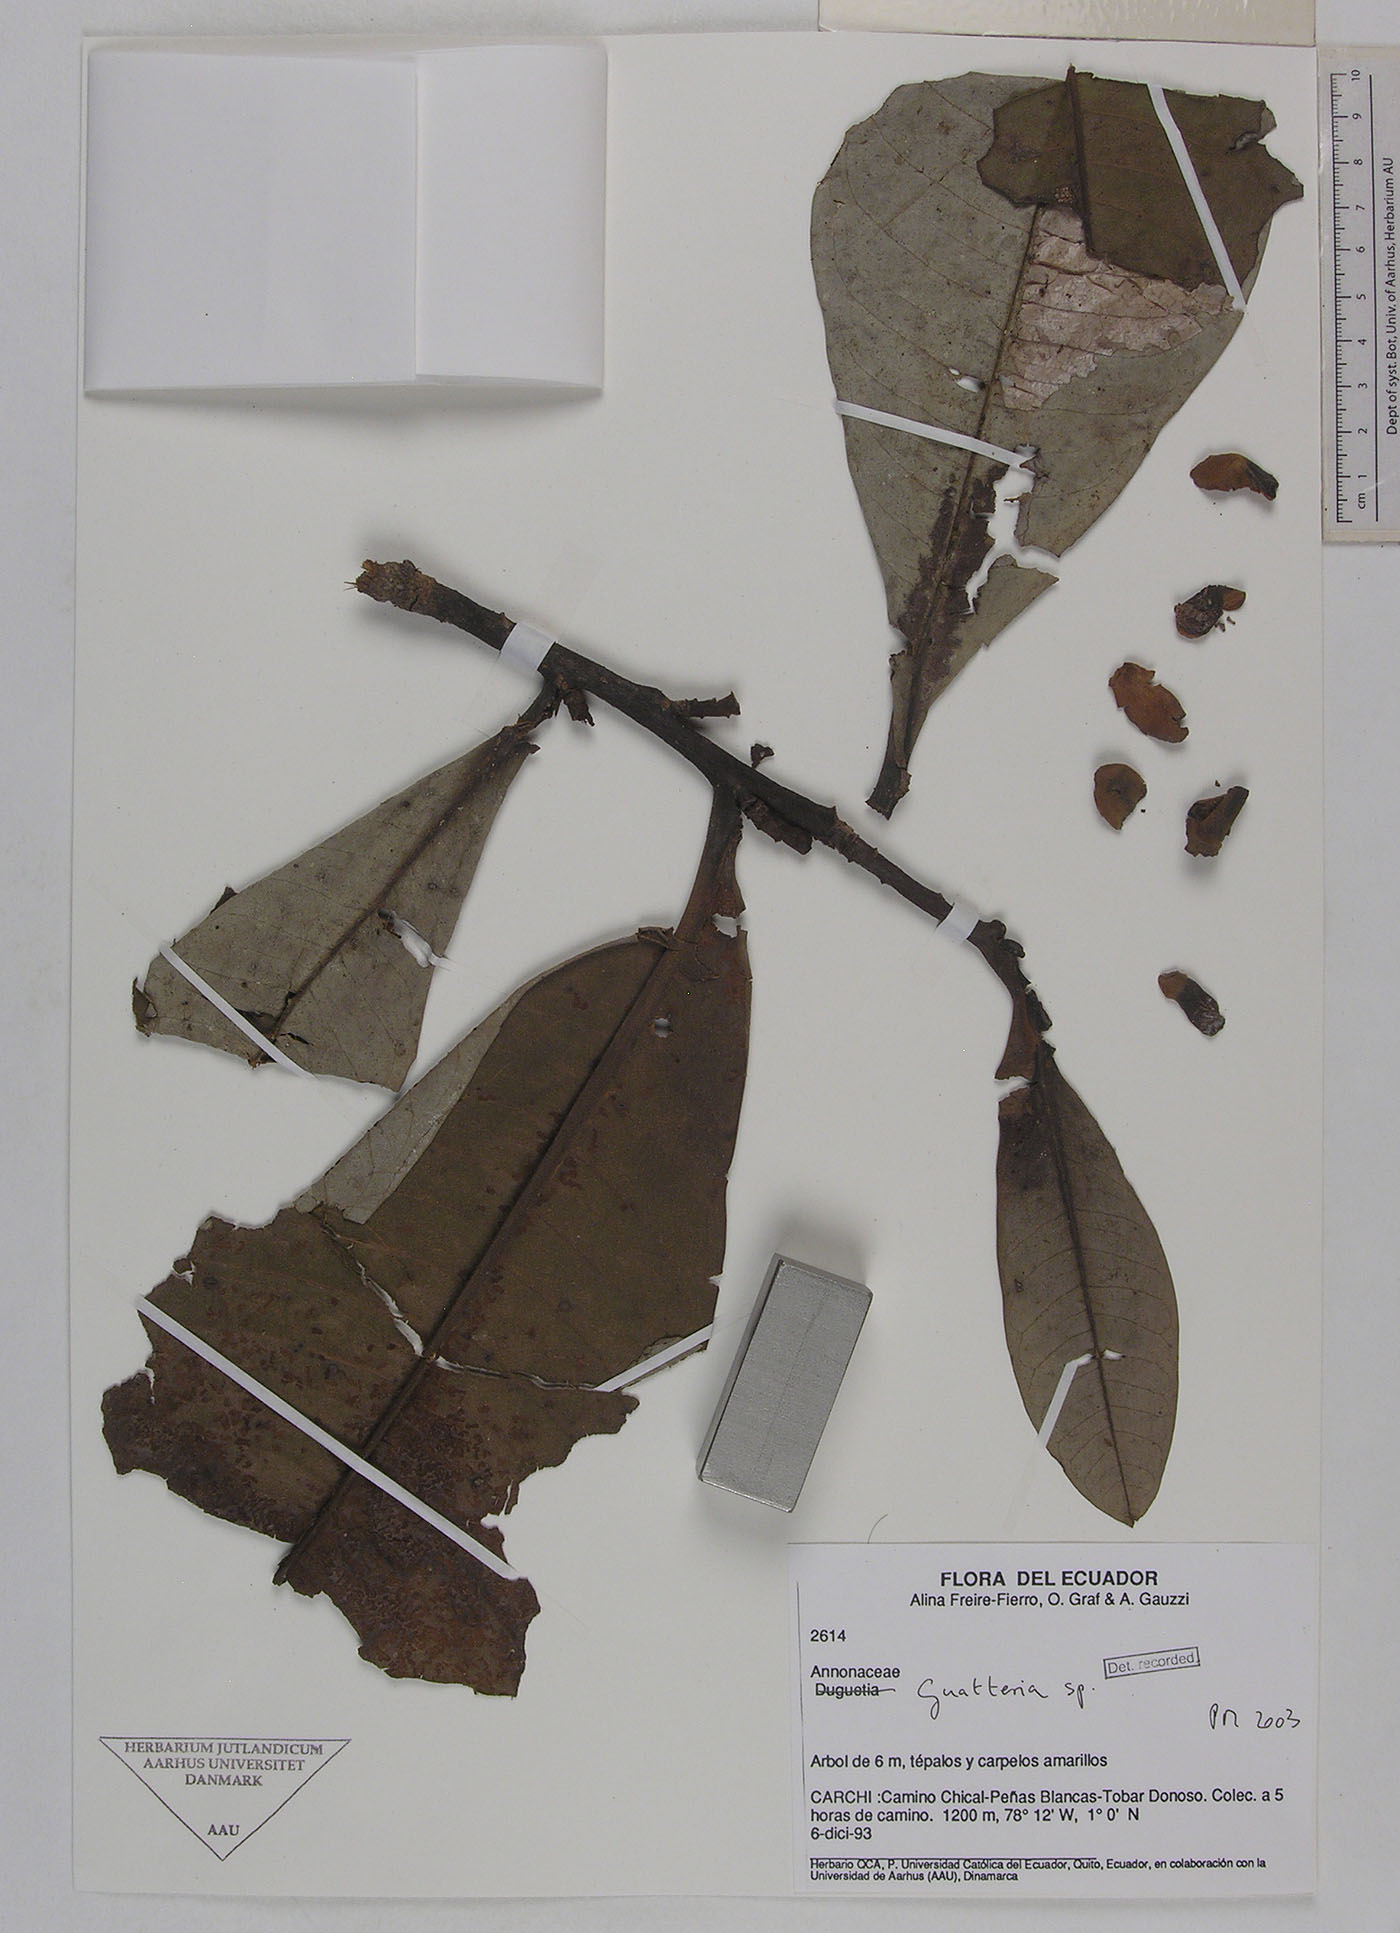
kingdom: Plantae
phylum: Tracheophyta
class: Magnoliopsida
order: Magnoliales
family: Annonaceae
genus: Guatteria
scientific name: Guatteria crassipes
